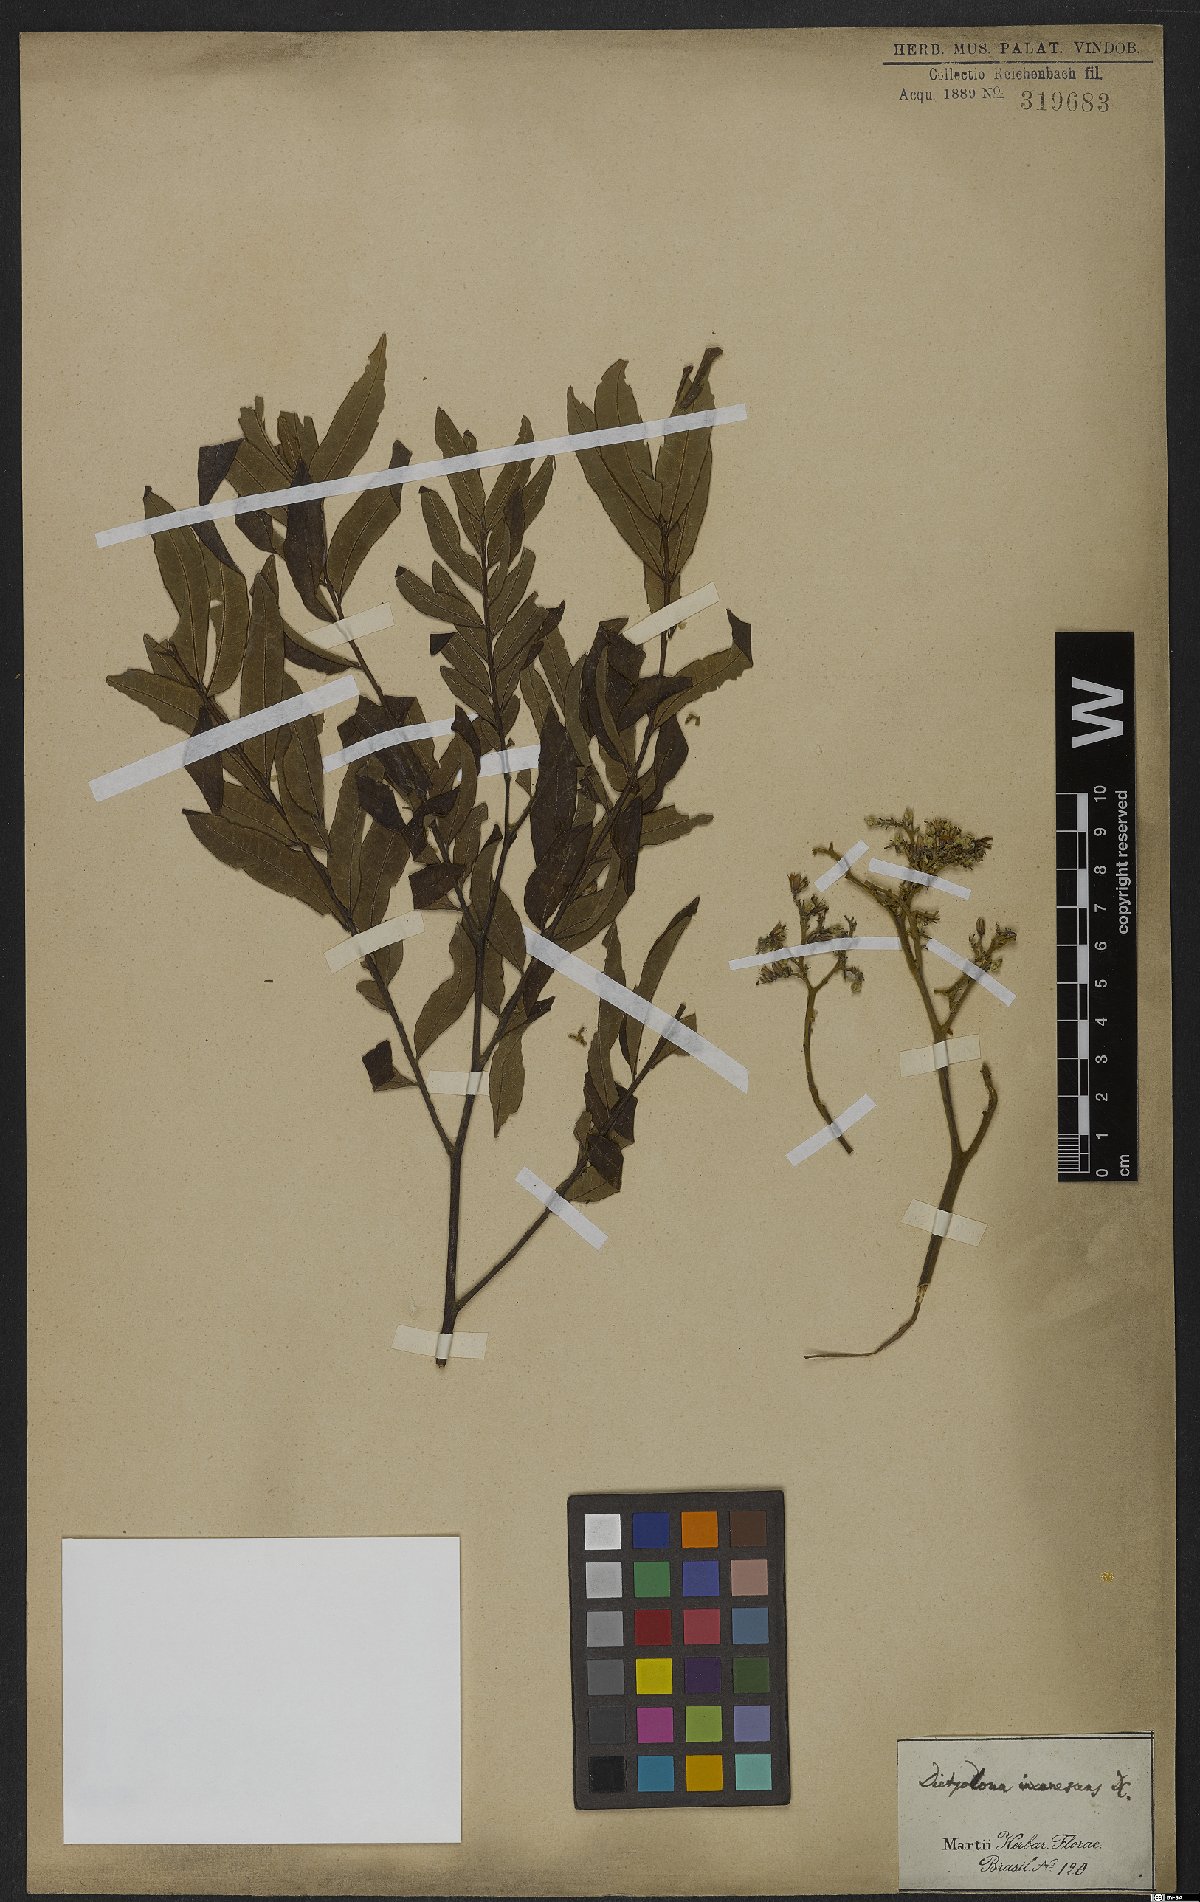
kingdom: Plantae
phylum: Tracheophyta
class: Magnoliopsida
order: Sapindales
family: Rutaceae
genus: Dictyoloma
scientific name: Dictyoloma vandellianum
